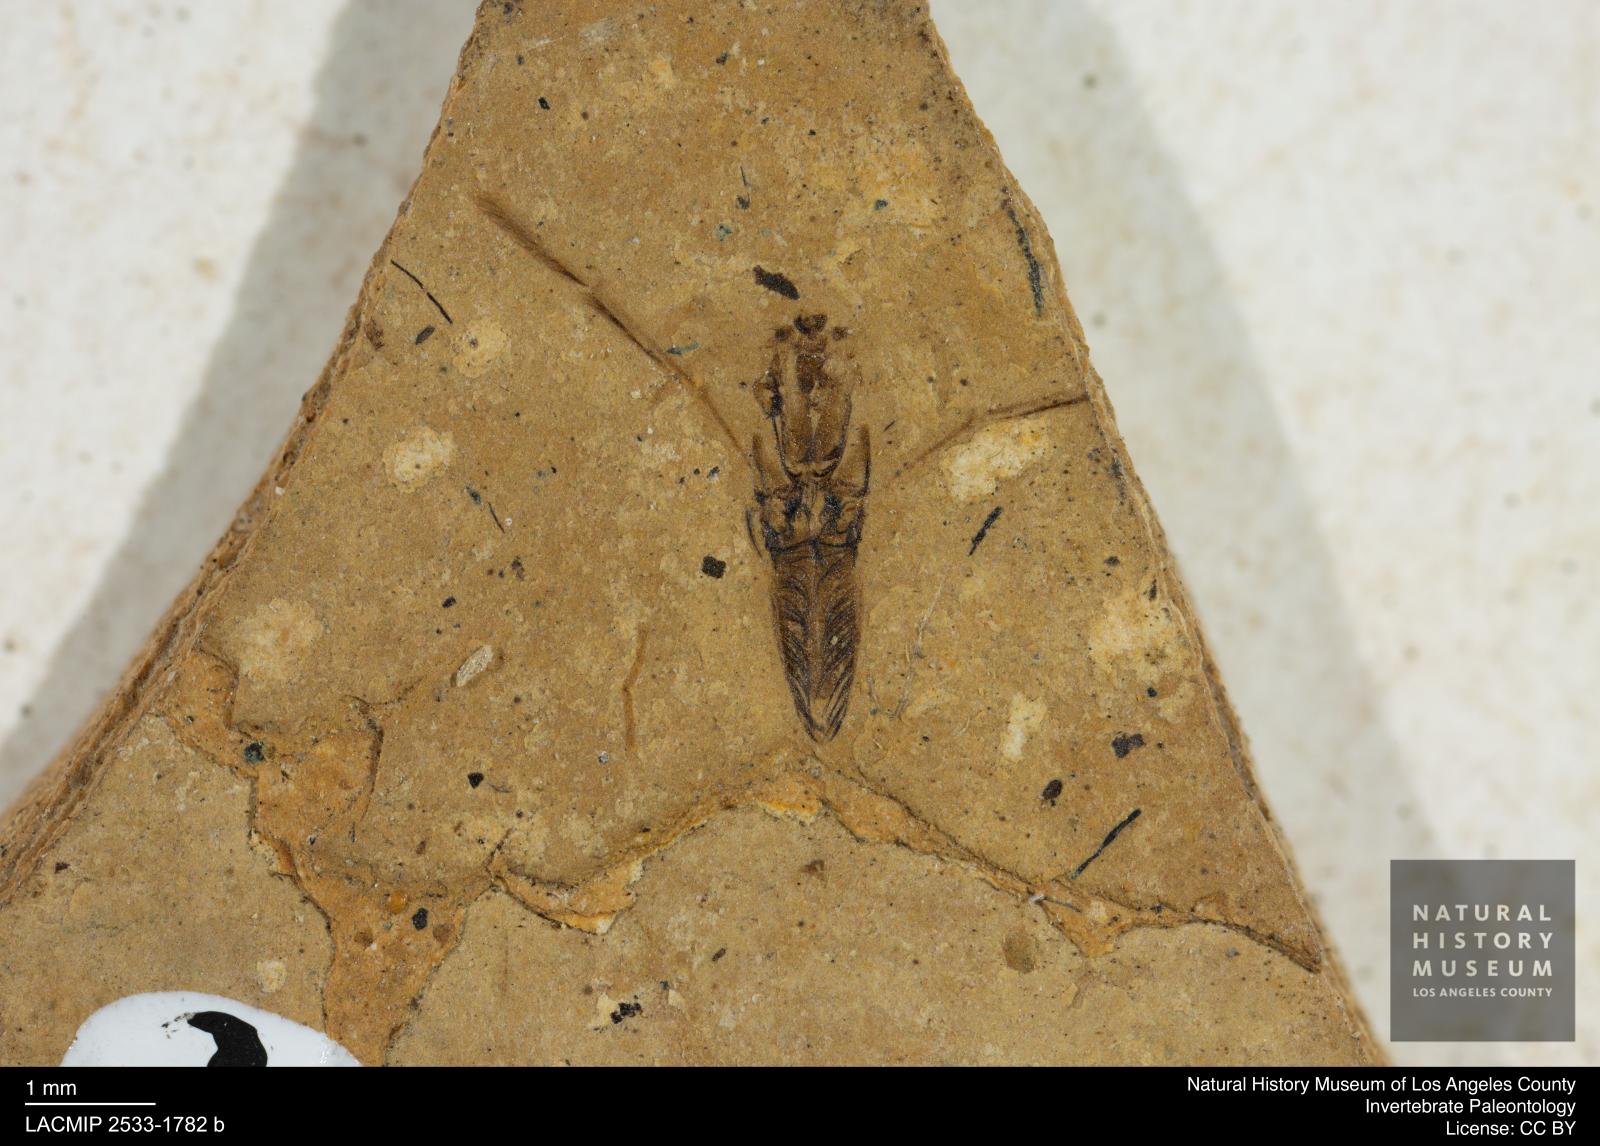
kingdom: Animalia
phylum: Arthropoda
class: Insecta
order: Hemiptera
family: Notonectidae
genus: Notonecta
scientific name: Notonecta
